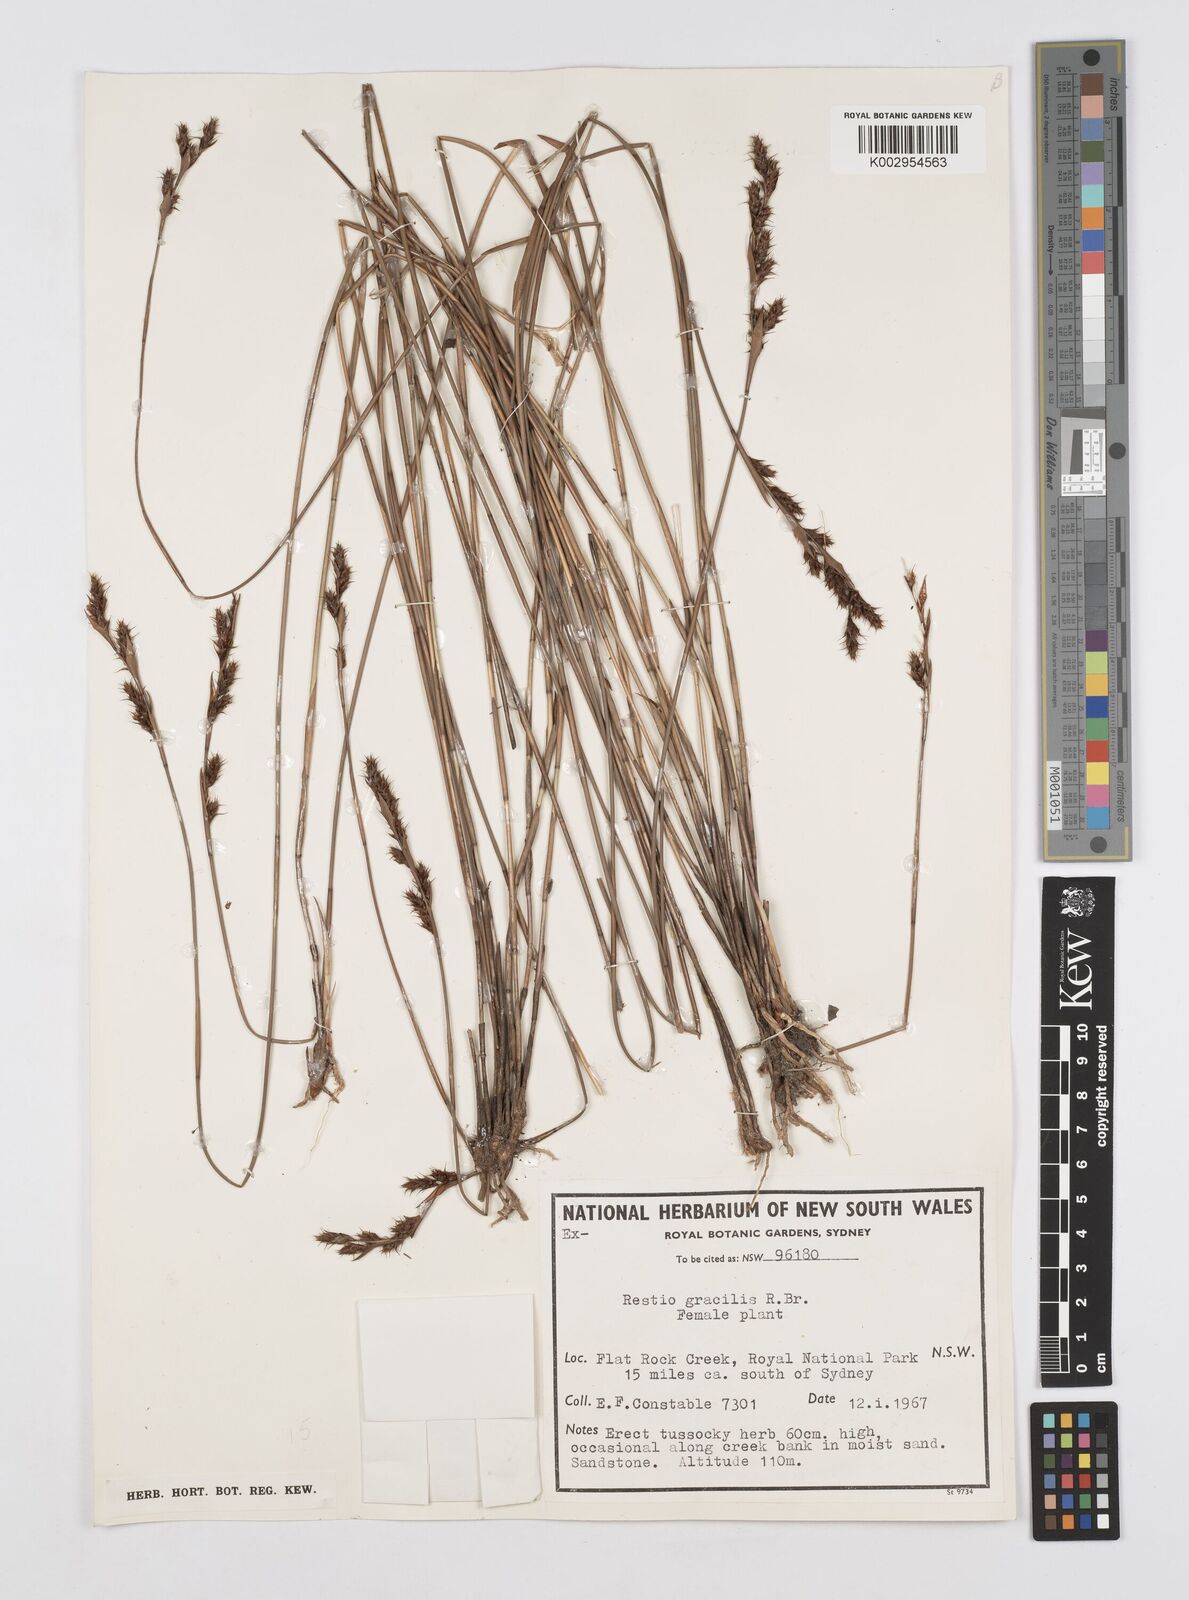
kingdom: Plantae
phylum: Tracheophyta
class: Liliopsida
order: Poales
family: Restionaceae
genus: Baloskion
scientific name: Baloskion gracile
